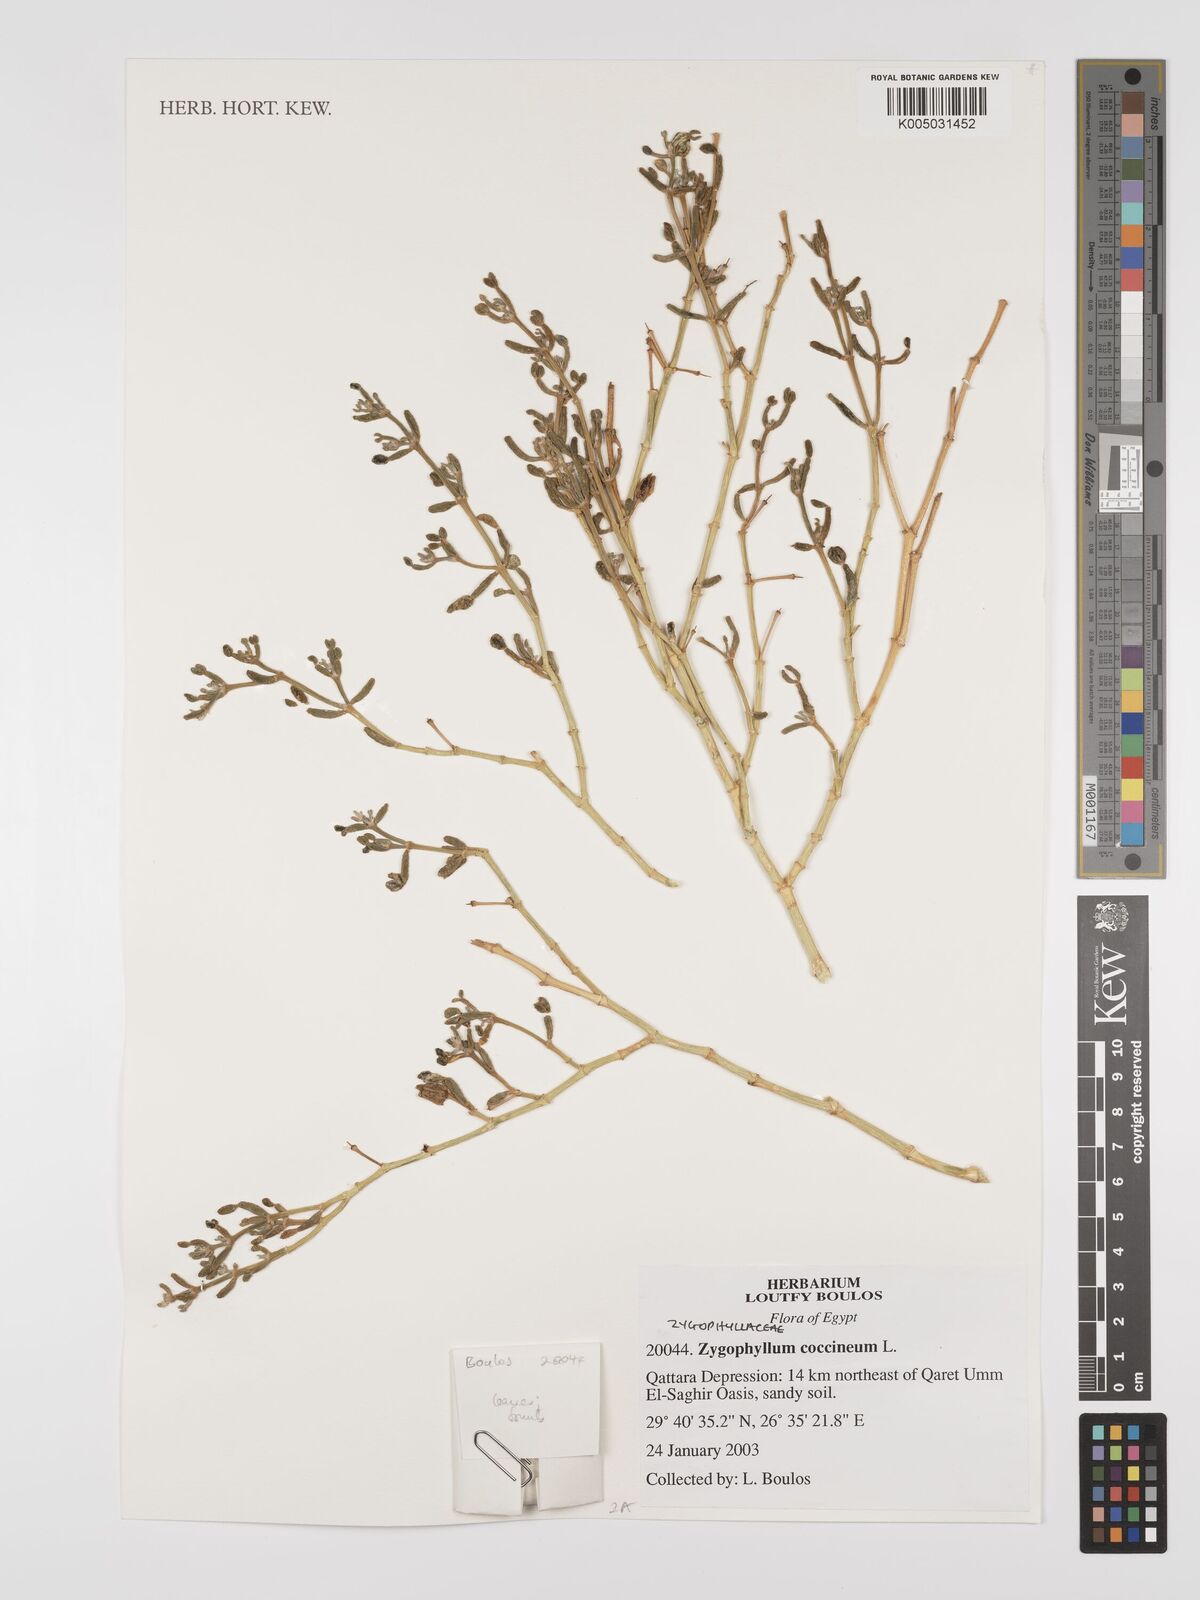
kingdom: Plantae
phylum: Tracheophyta
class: Magnoliopsida
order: Zygophyllales
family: Zygophyllaceae
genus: Zygophyllum
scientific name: Zygophyllum
